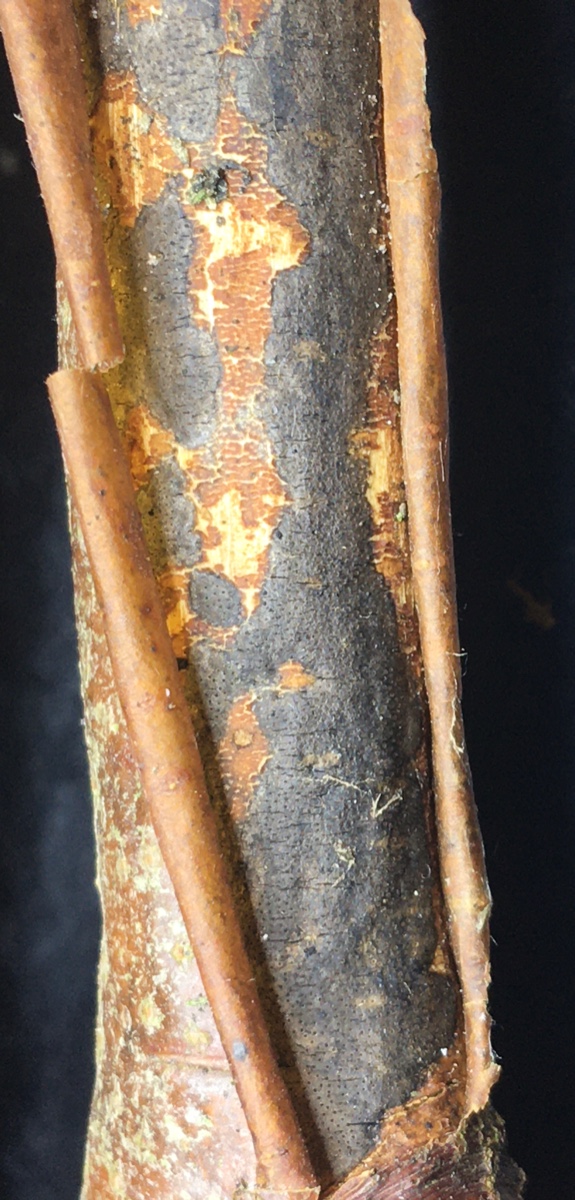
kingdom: Fungi
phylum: Ascomycota
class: Sordariomycetes
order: Xylariales
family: Diatrypaceae
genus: Diatrype
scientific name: Diatrype decorticata
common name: barksprænger-kulskorpe
